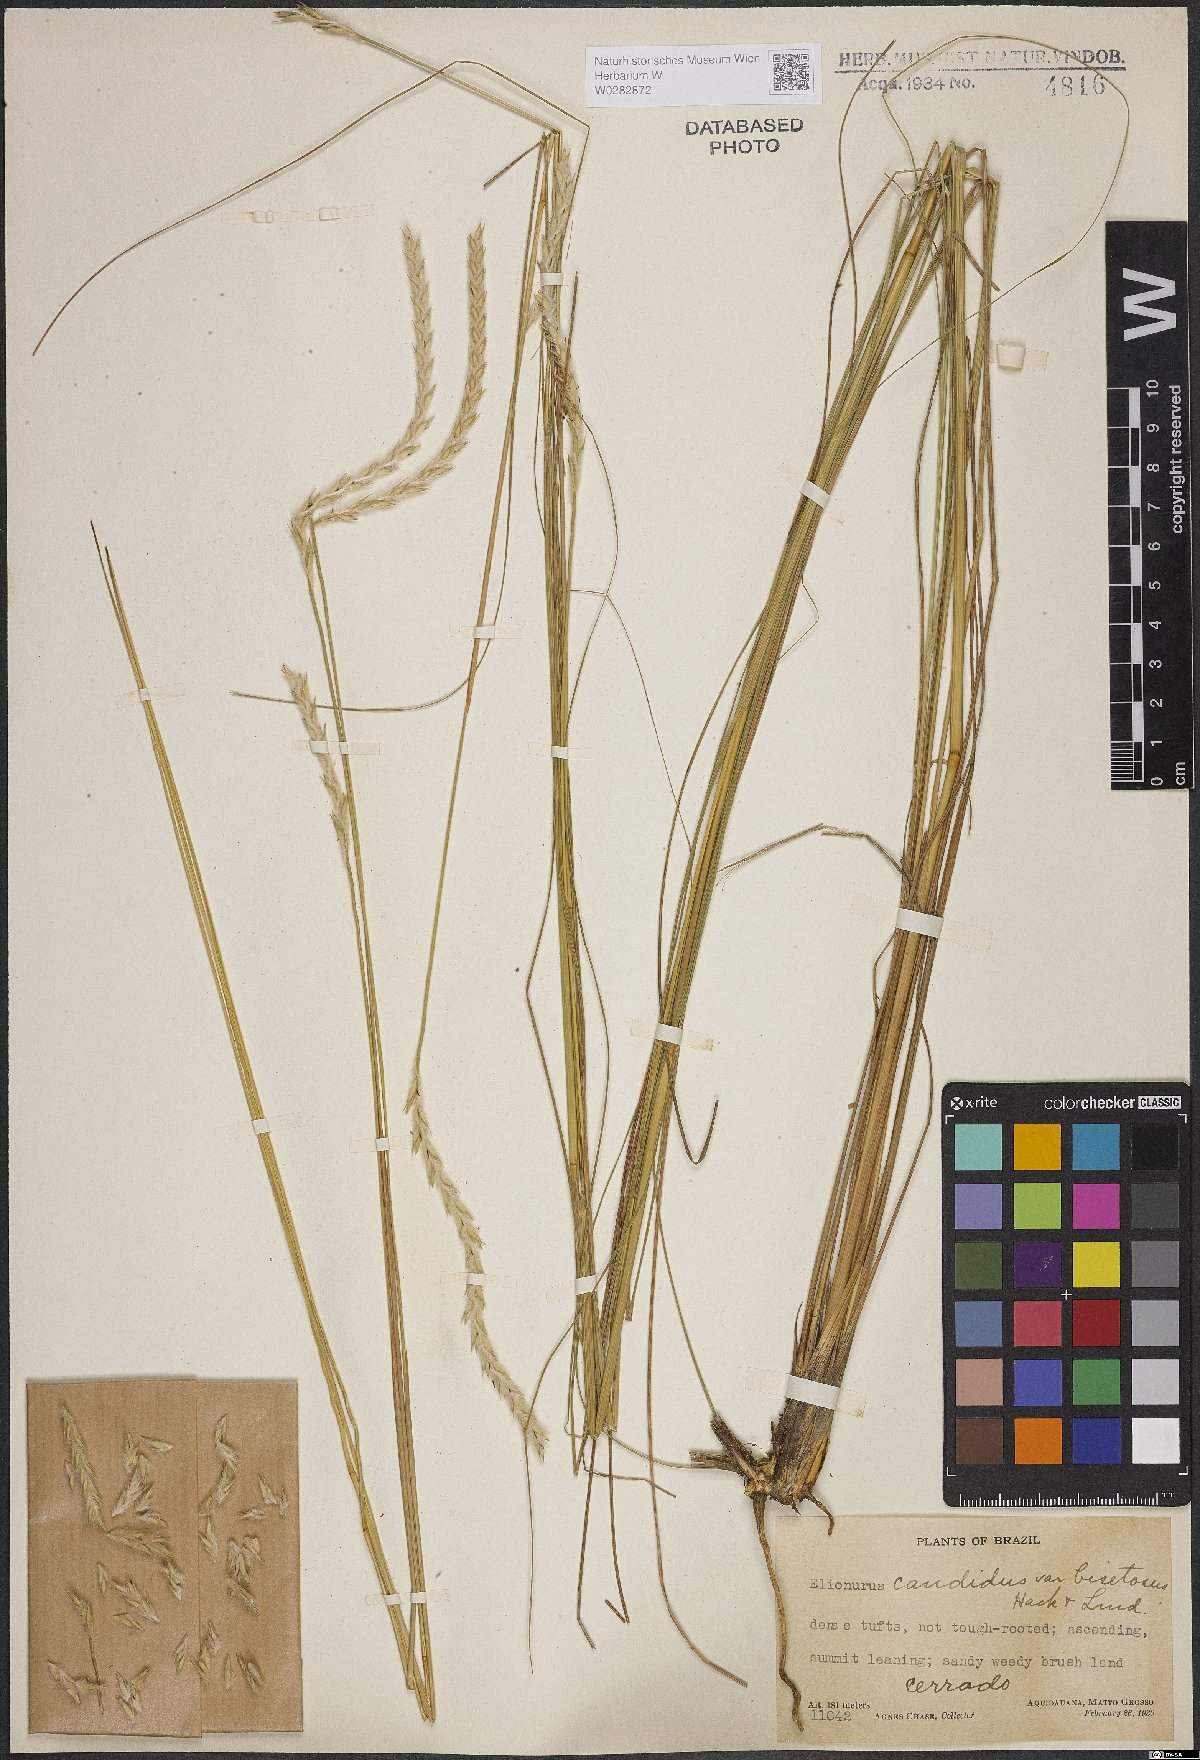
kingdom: Plantae
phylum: Tracheophyta
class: Liliopsida
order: Poales
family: Poaceae
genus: Elionurus
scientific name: Elionurus muticus
